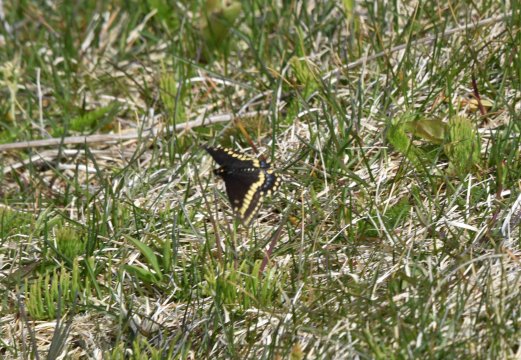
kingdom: Animalia
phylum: Arthropoda
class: Insecta
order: Lepidoptera
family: Papilionidae
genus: Papilio
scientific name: Papilio polyxenes
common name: Black Swallowtail
